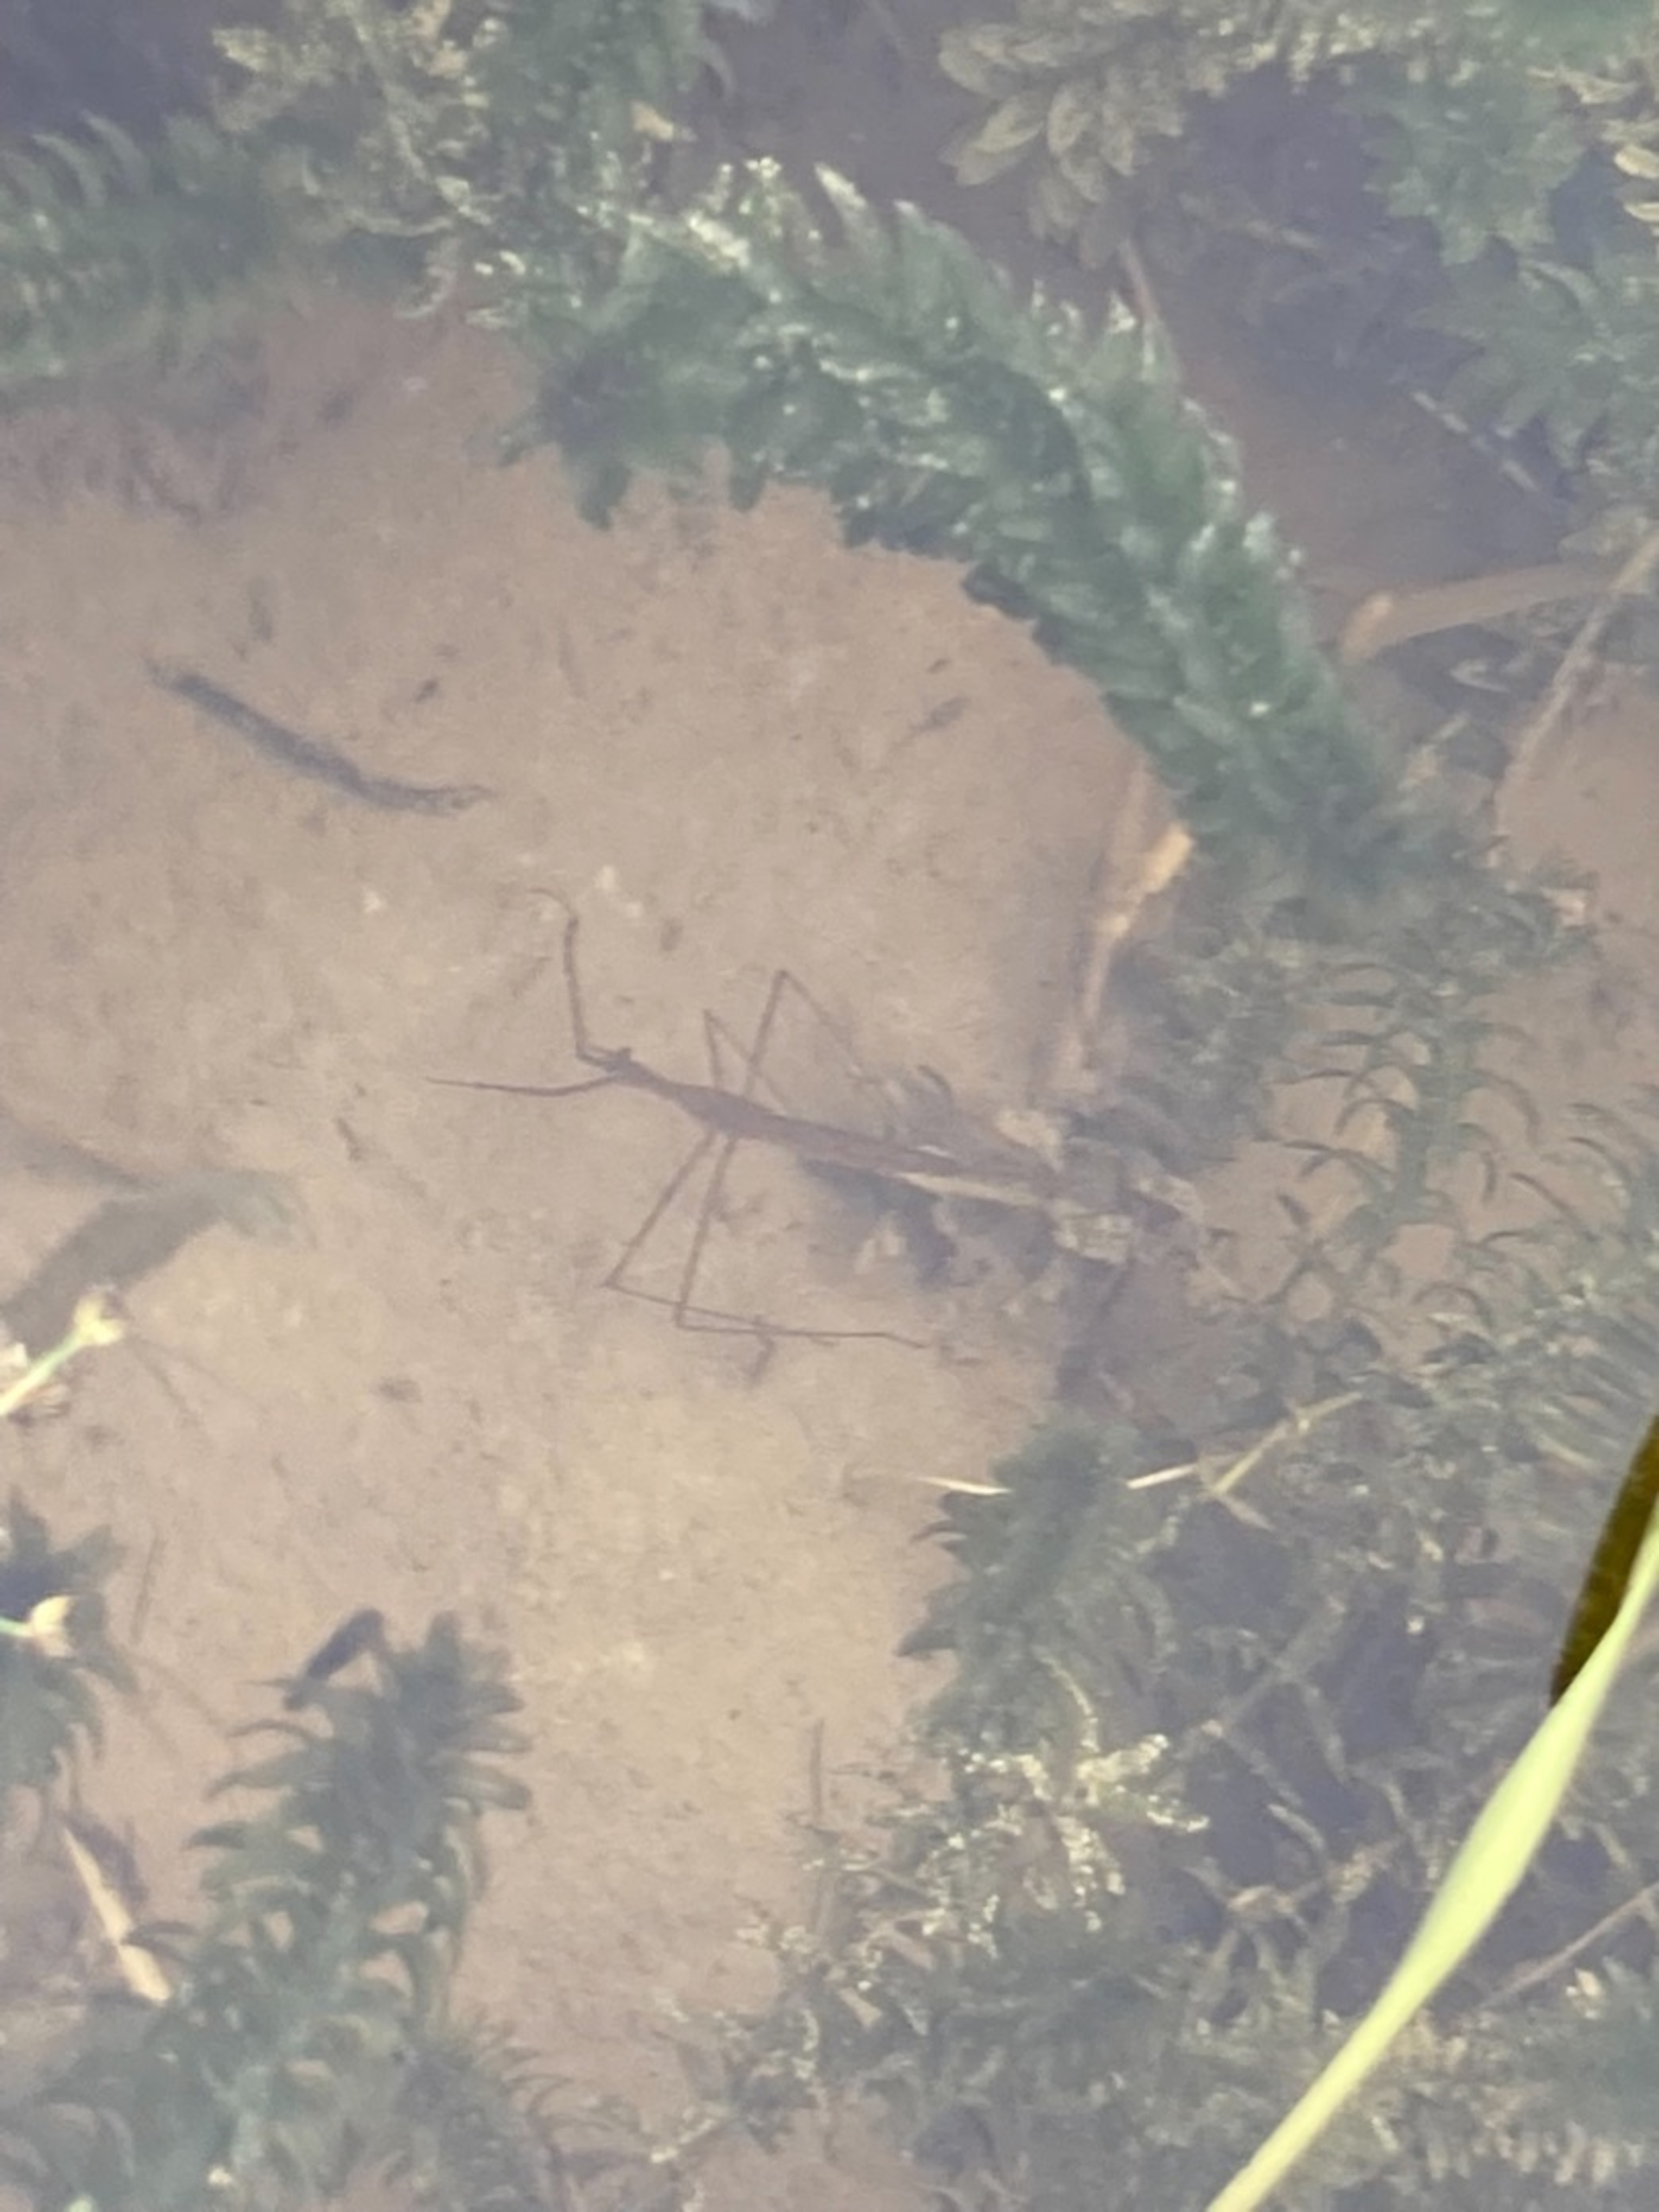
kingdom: Animalia
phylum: Arthropoda
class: Insecta
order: Hemiptera
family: Nepidae
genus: Ranatra
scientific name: Ranatra linearis
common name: Stavtæge
